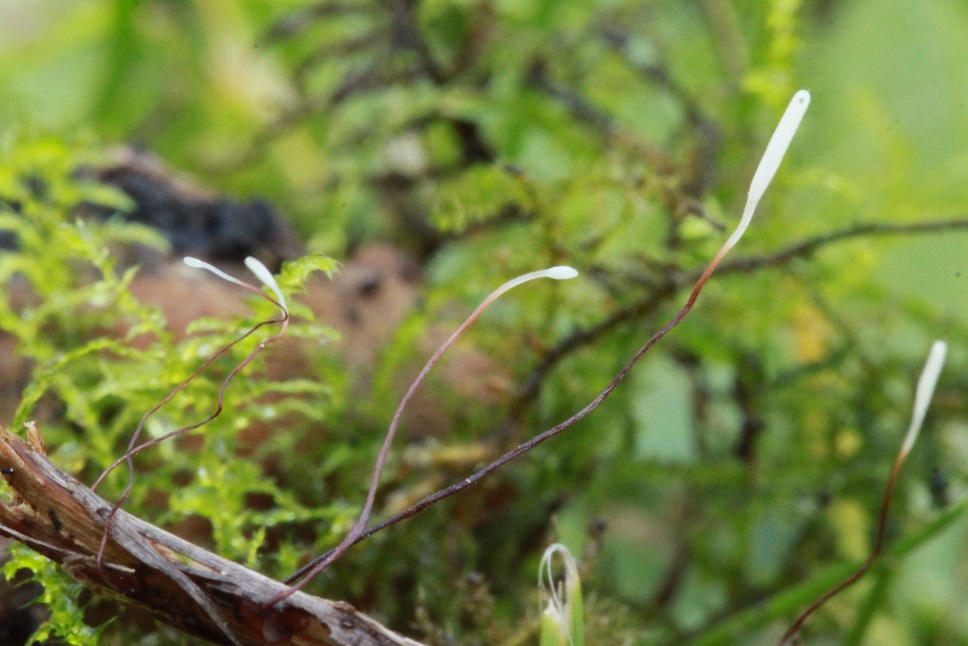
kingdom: Fungi
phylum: Basidiomycota
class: Agaricomycetes
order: Agaricales
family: Typhulaceae
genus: Typhula
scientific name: Typhula erythropus
